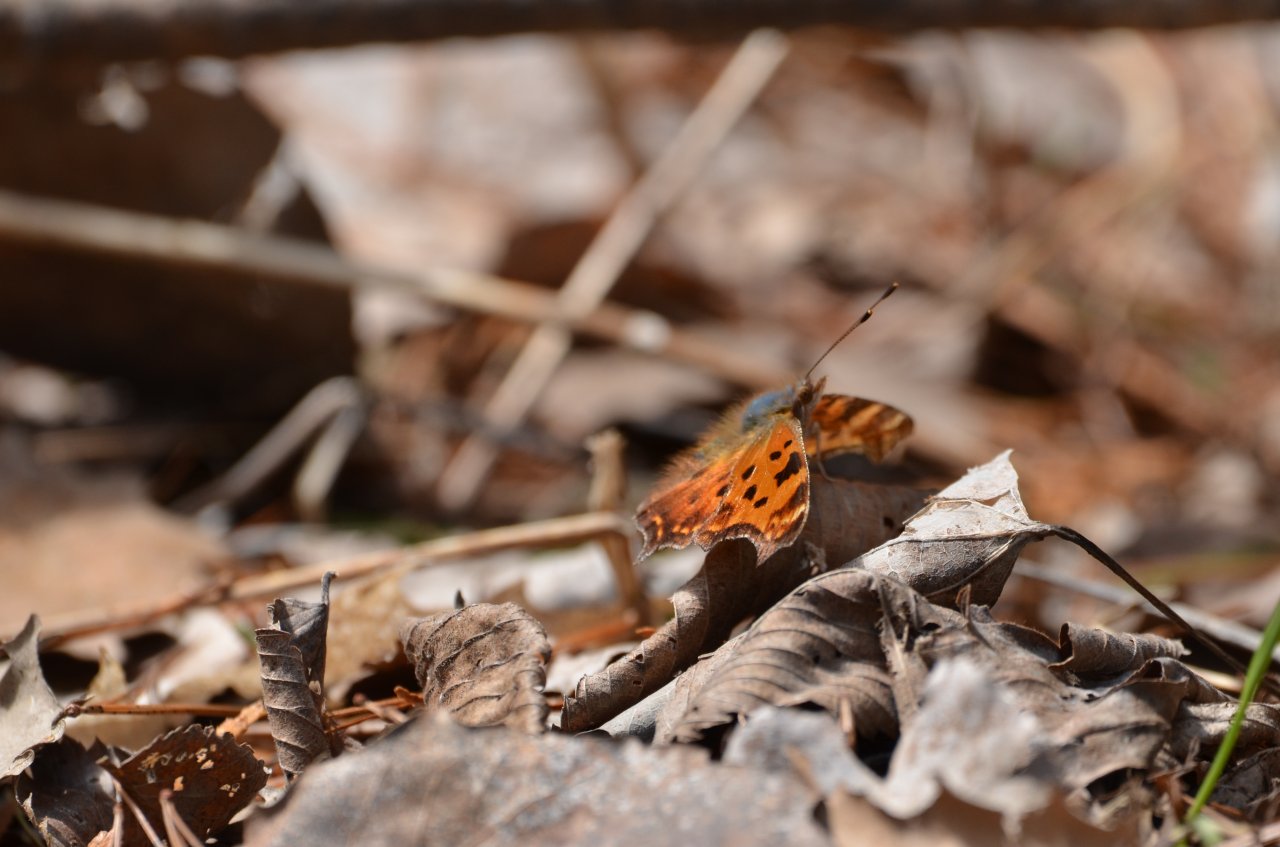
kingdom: Animalia
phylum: Arthropoda
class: Insecta
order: Lepidoptera
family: Nymphalidae
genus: Polygonia
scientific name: Polygonia comma
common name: Eastern Comma
